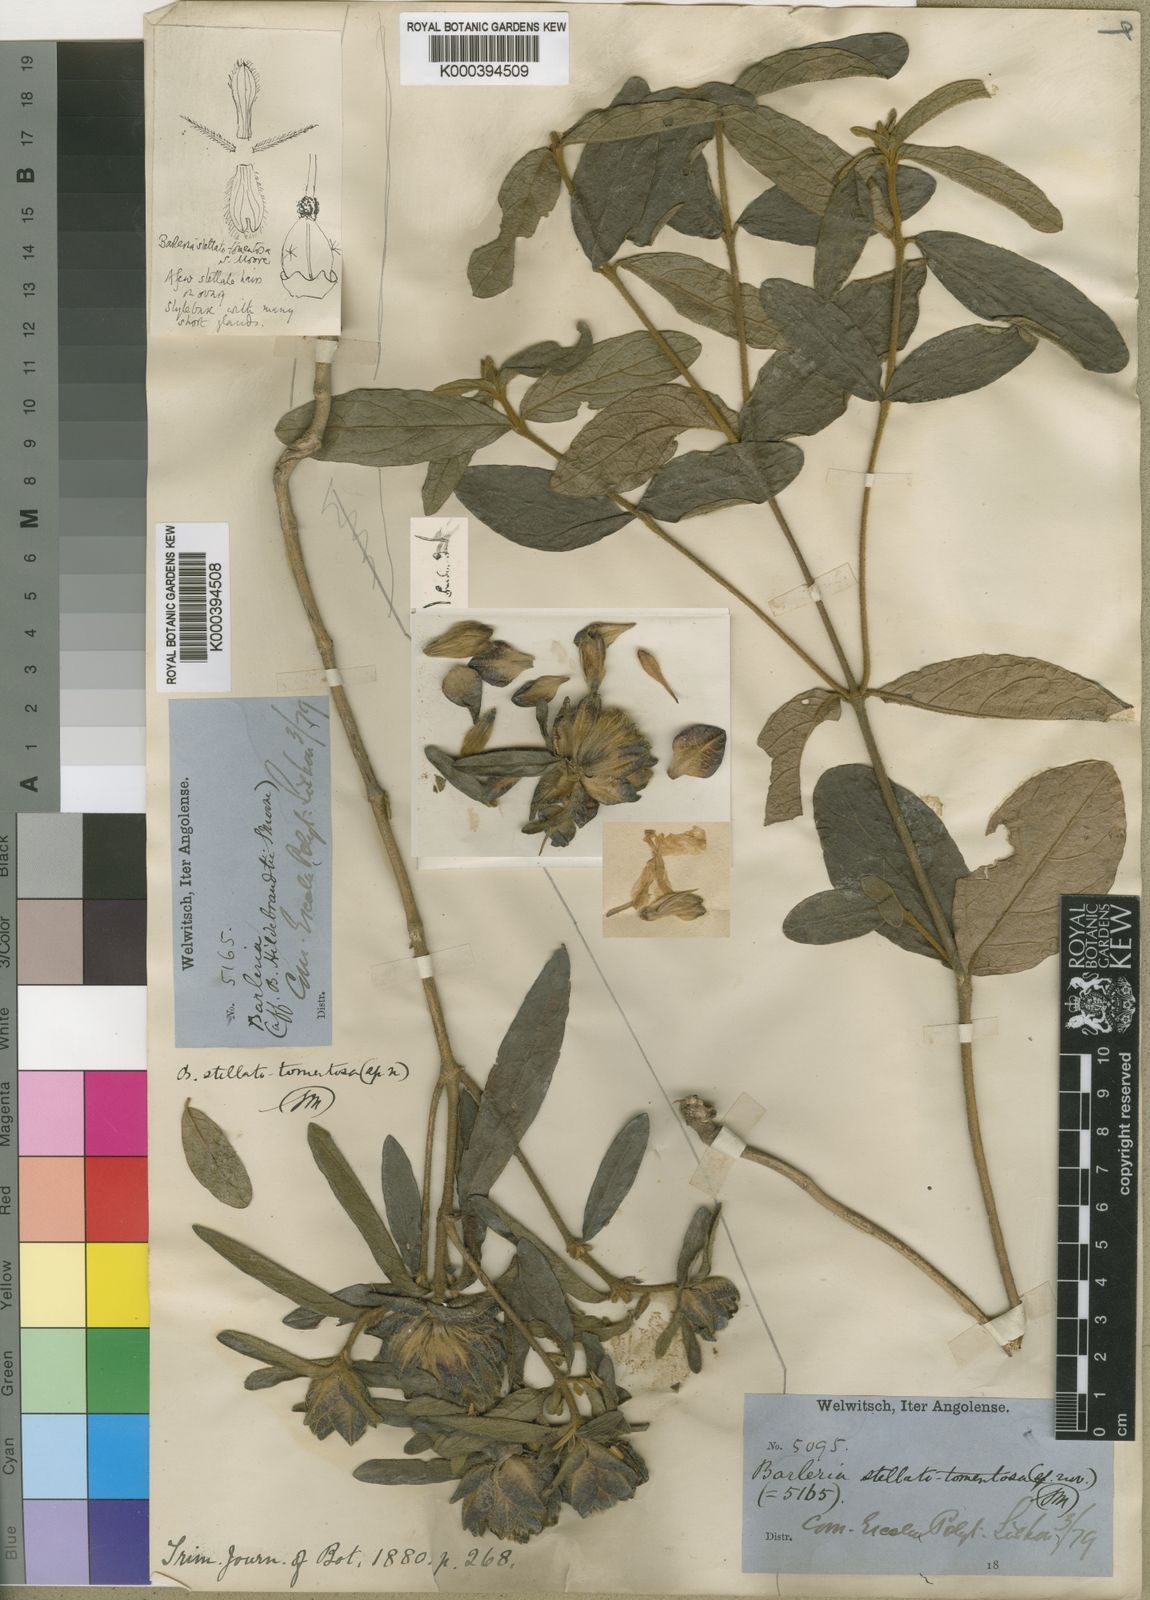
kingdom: Plantae
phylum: Tracheophyta
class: Magnoliopsida
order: Lamiales
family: Acanthaceae
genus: Barleria
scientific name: Barleria stellatotomentosa
